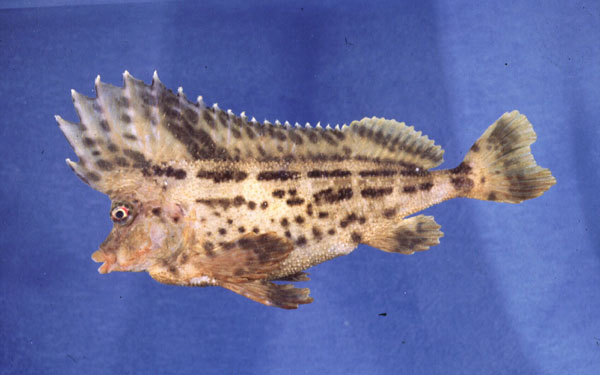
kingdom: Animalia
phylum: Chordata
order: Scorpaeniformes
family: Congiopodidae
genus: Congiopodus
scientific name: Congiopodus torvus
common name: Smooth horsefish
